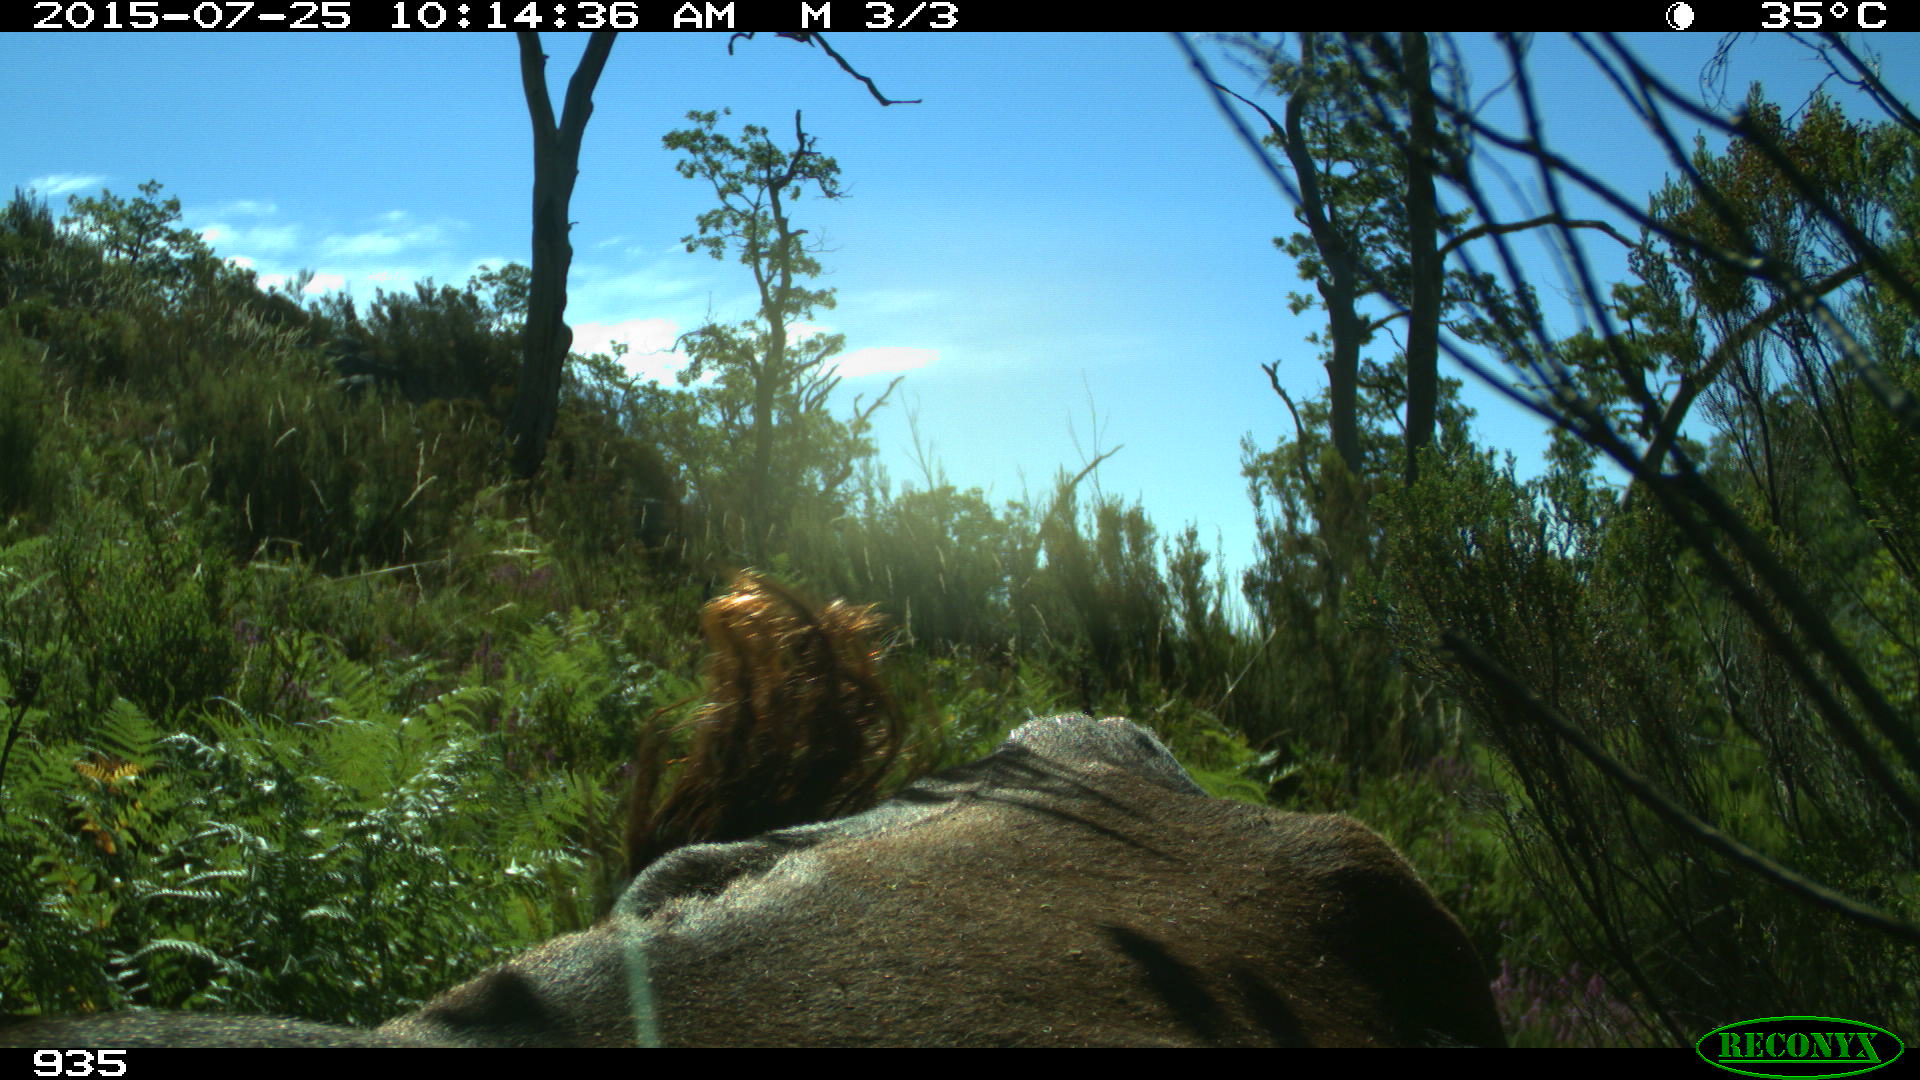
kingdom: Animalia
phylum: Chordata
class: Mammalia
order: Artiodactyla
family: Bovidae
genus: Bos
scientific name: Bos taurus
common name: Domesticated cattle
